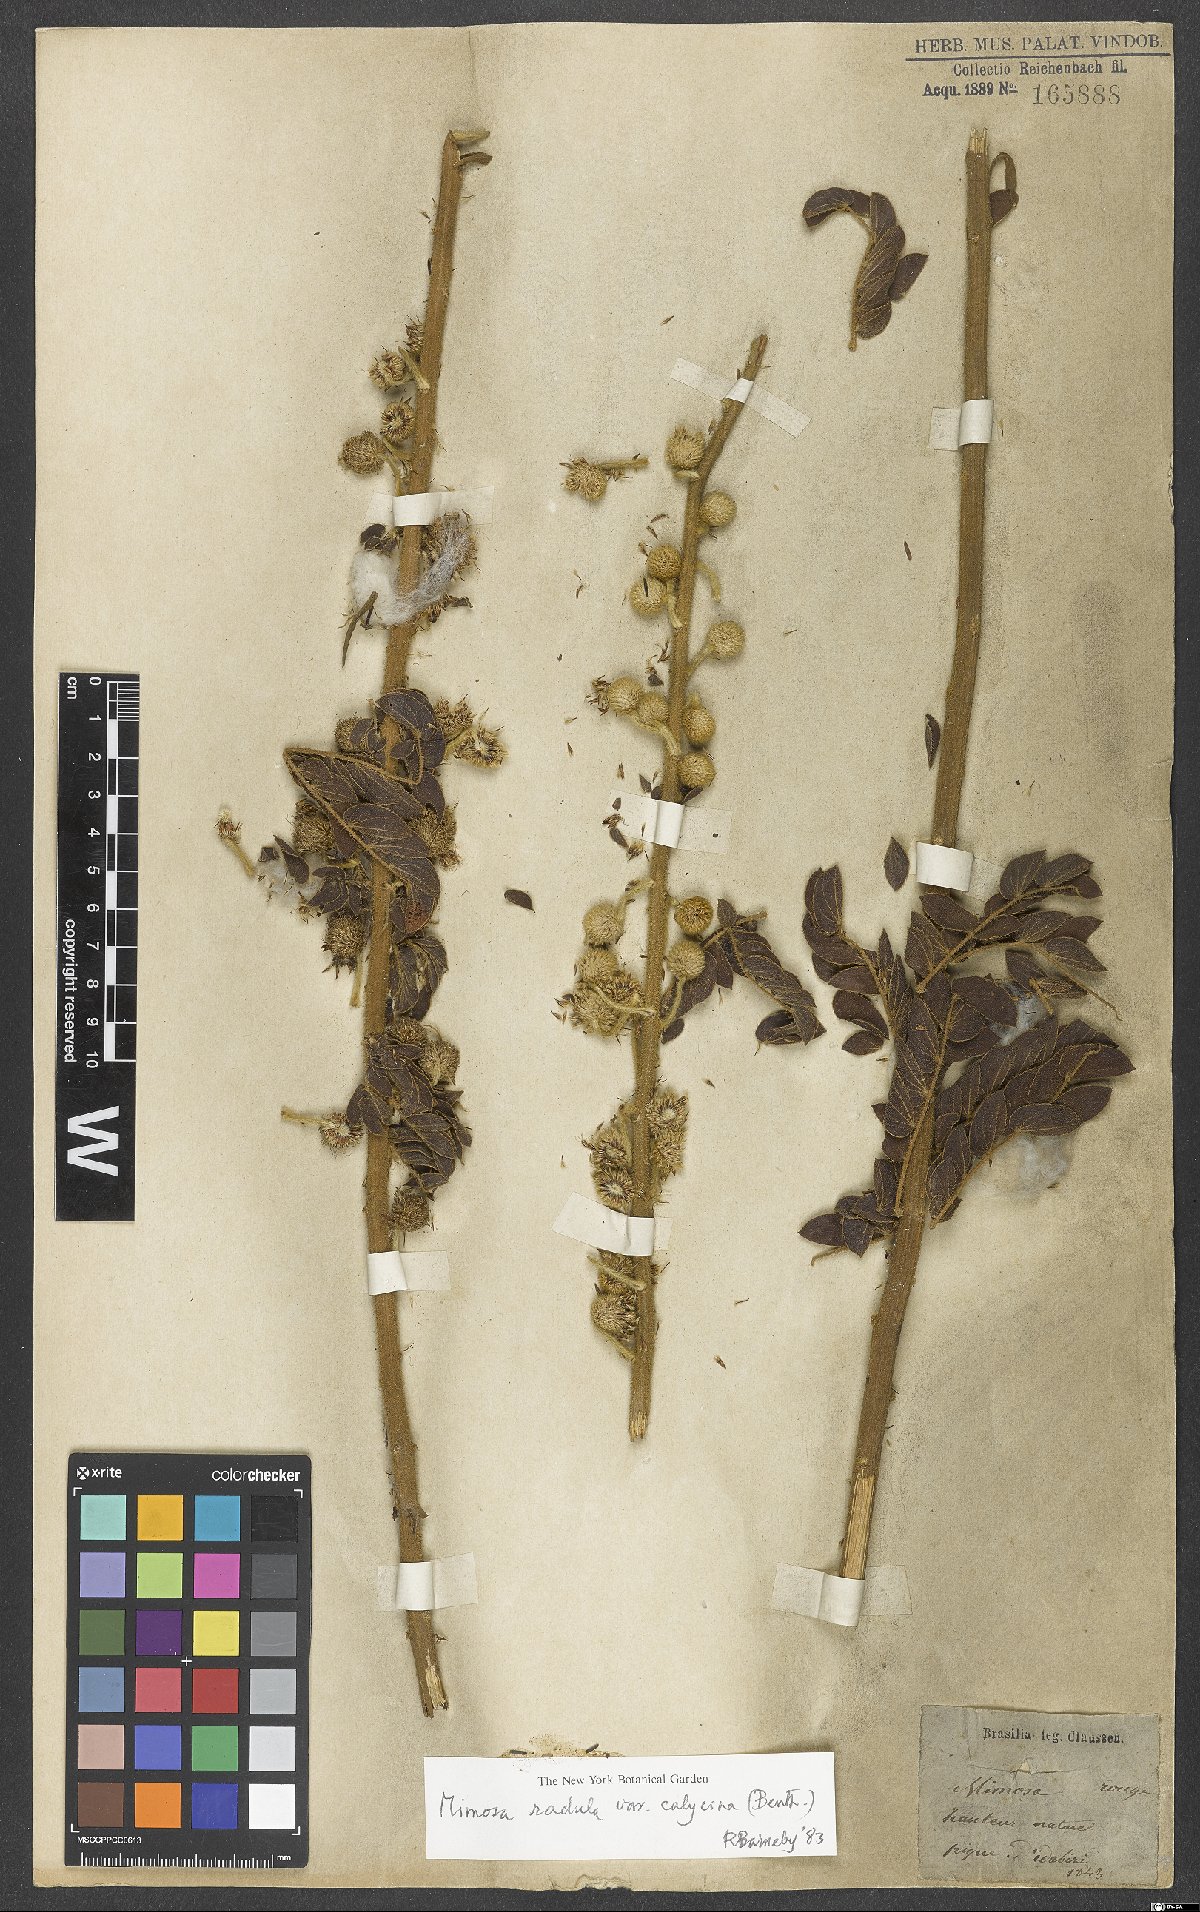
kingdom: Plantae
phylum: Tracheophyta
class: Magnoliopsida
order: Fabales
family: Fabaceae
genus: Mimosa
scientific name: Mimosa radula
